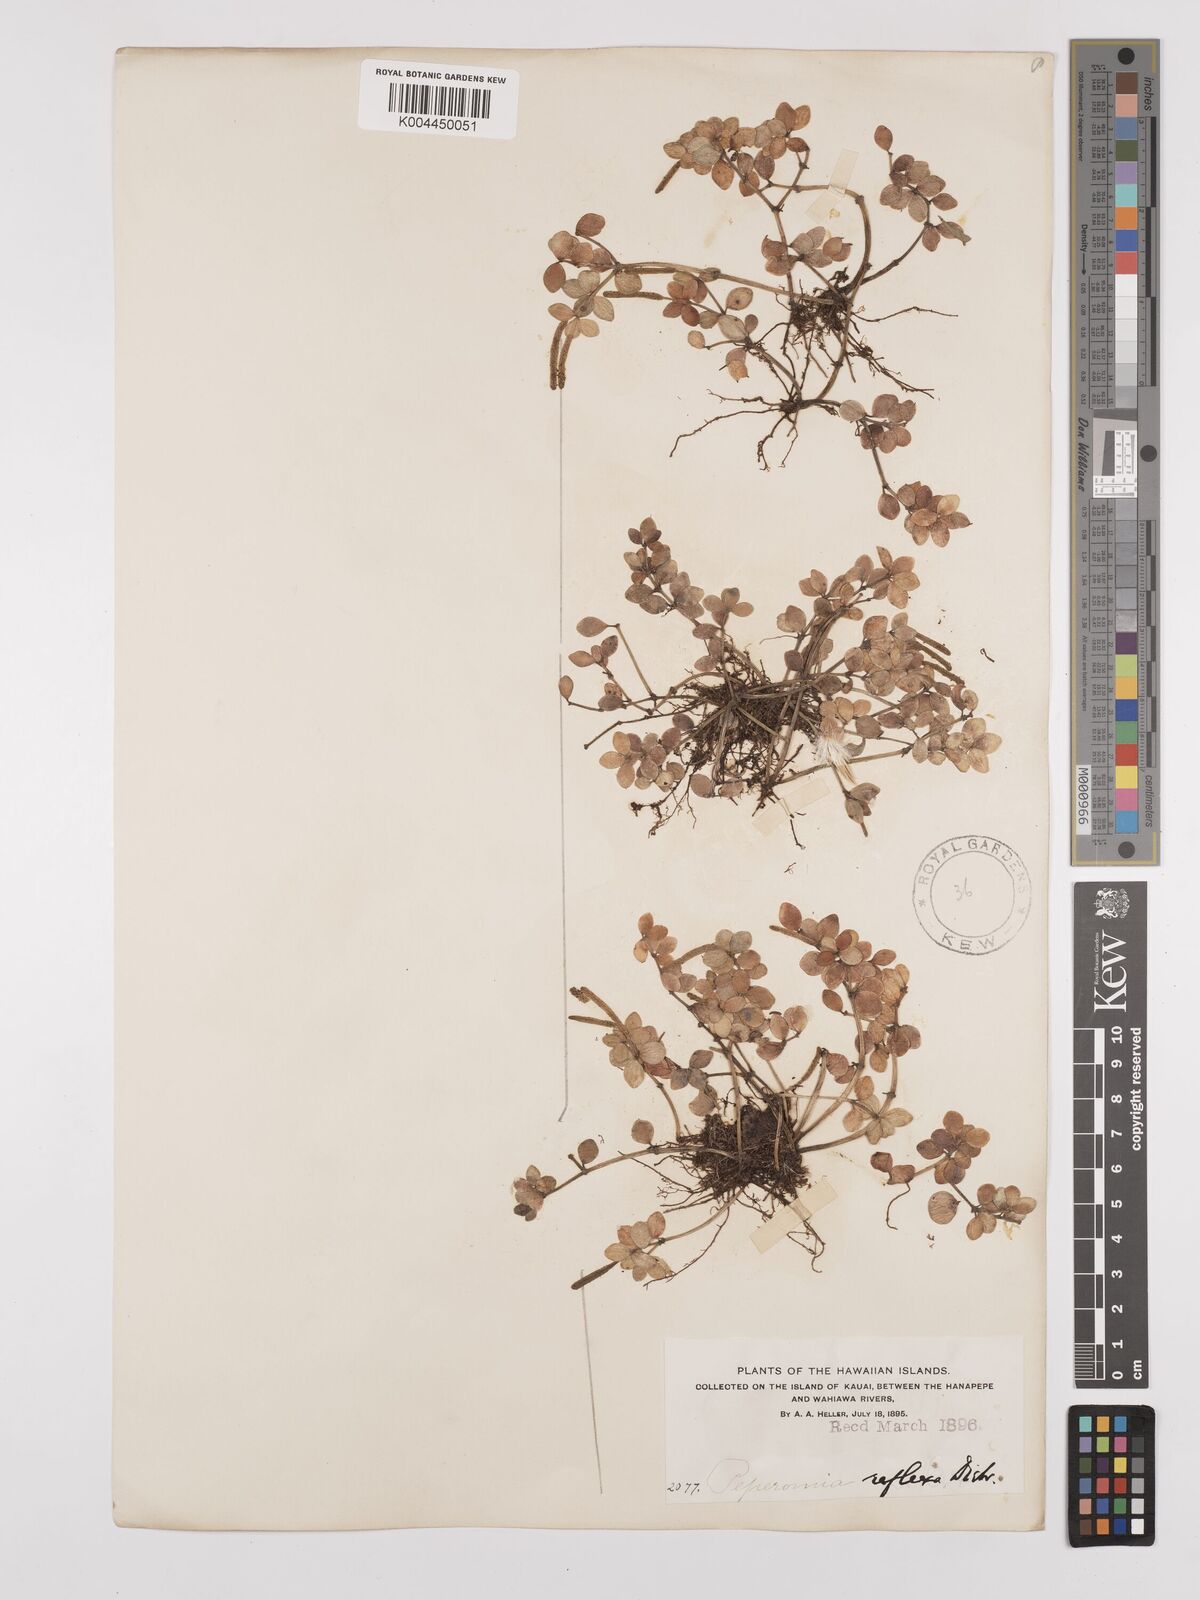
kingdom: Plantae
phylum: Tracheophyta
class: Magnoliopsida
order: Piperales
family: Piperaceae
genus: Peperomia
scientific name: Peperomia tetraphylla
